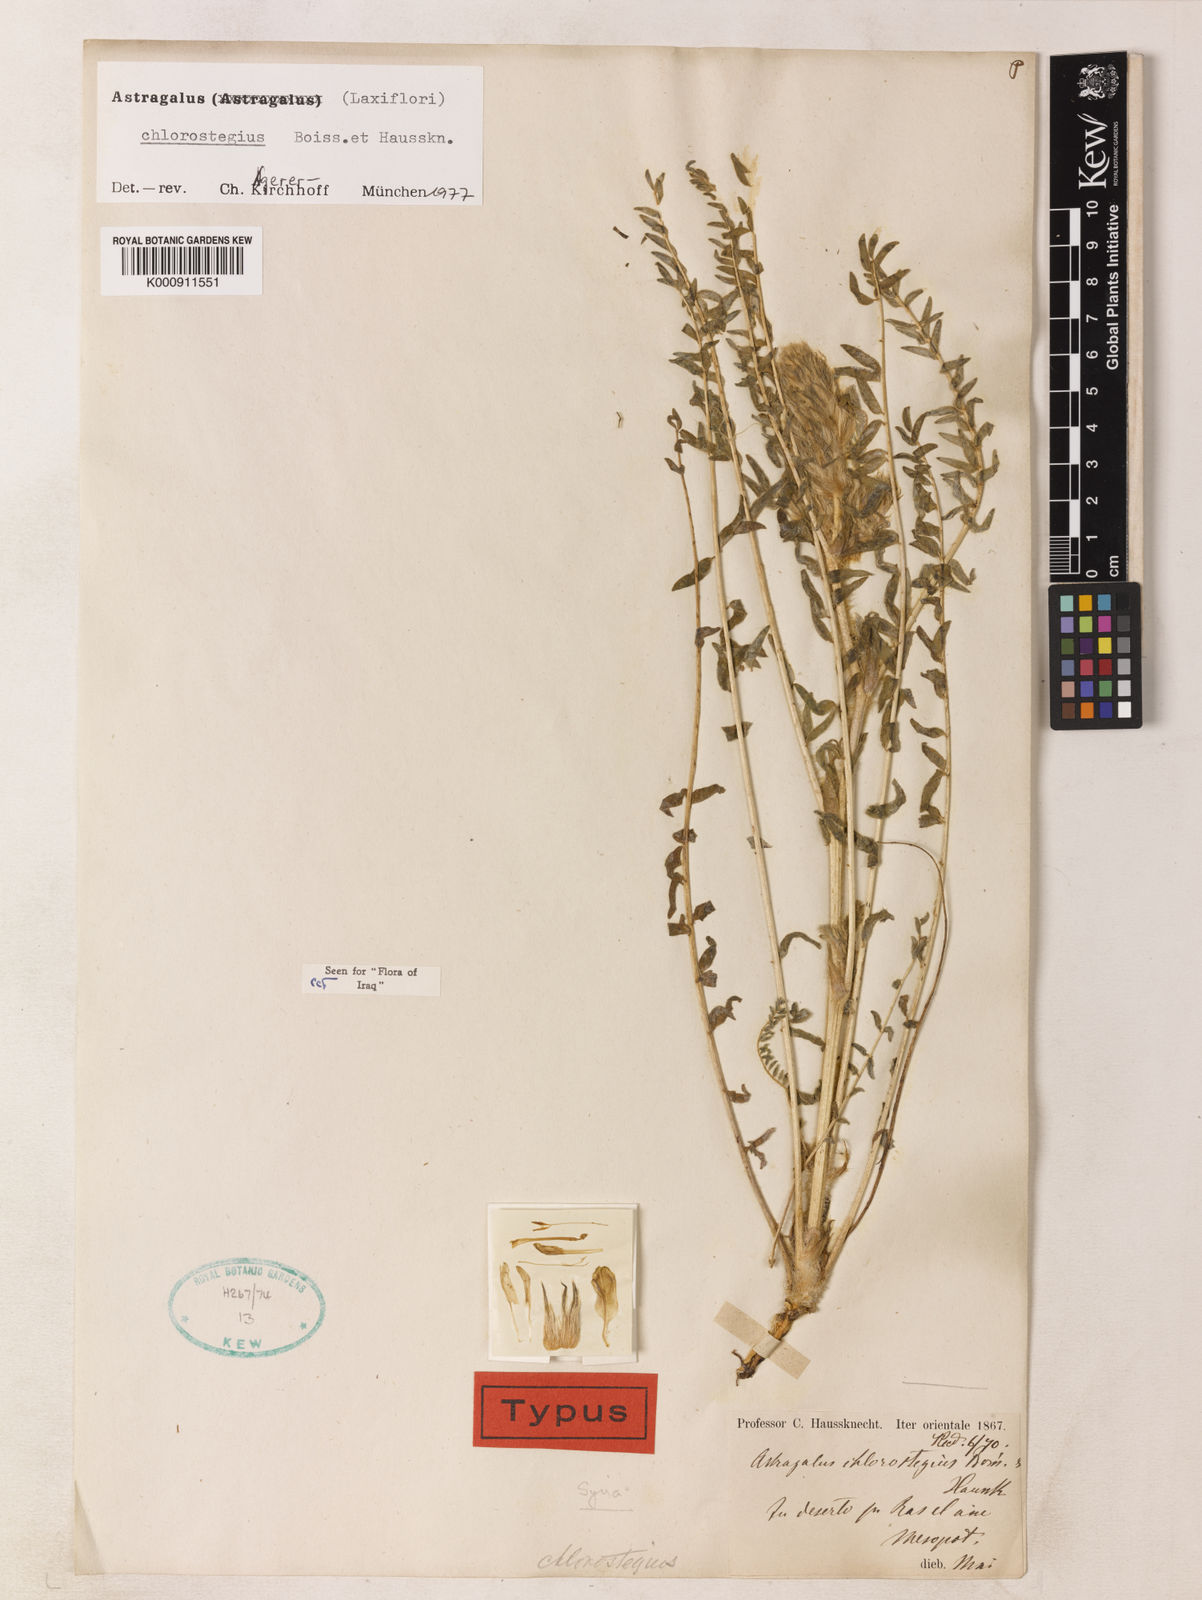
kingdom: Plantae
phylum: Tracheophyta
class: Magnoliopsida
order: Fabales
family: Fabaceae
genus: Astragalus
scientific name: Astragalus chlorostegius
